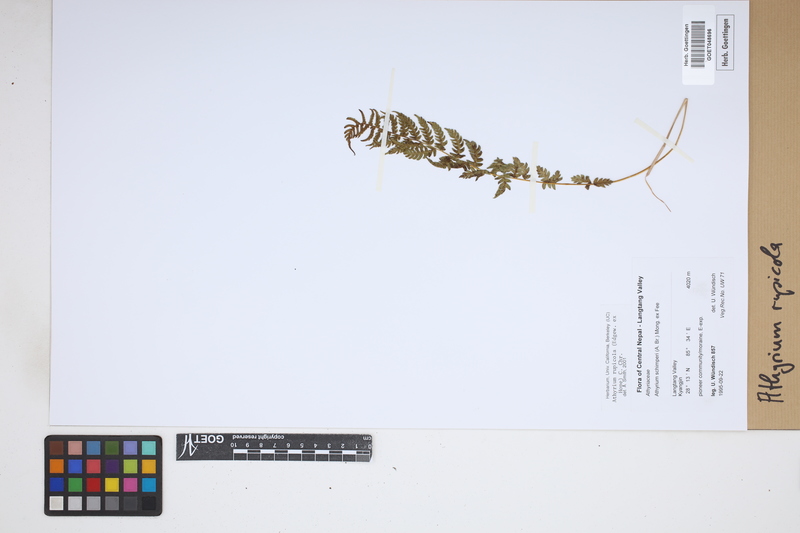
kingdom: Plantae
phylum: Tracheophyta
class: Polypodiopsida
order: Polypodiales
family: Athyriaceae
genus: Athyrium
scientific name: Athyrium rupicola
